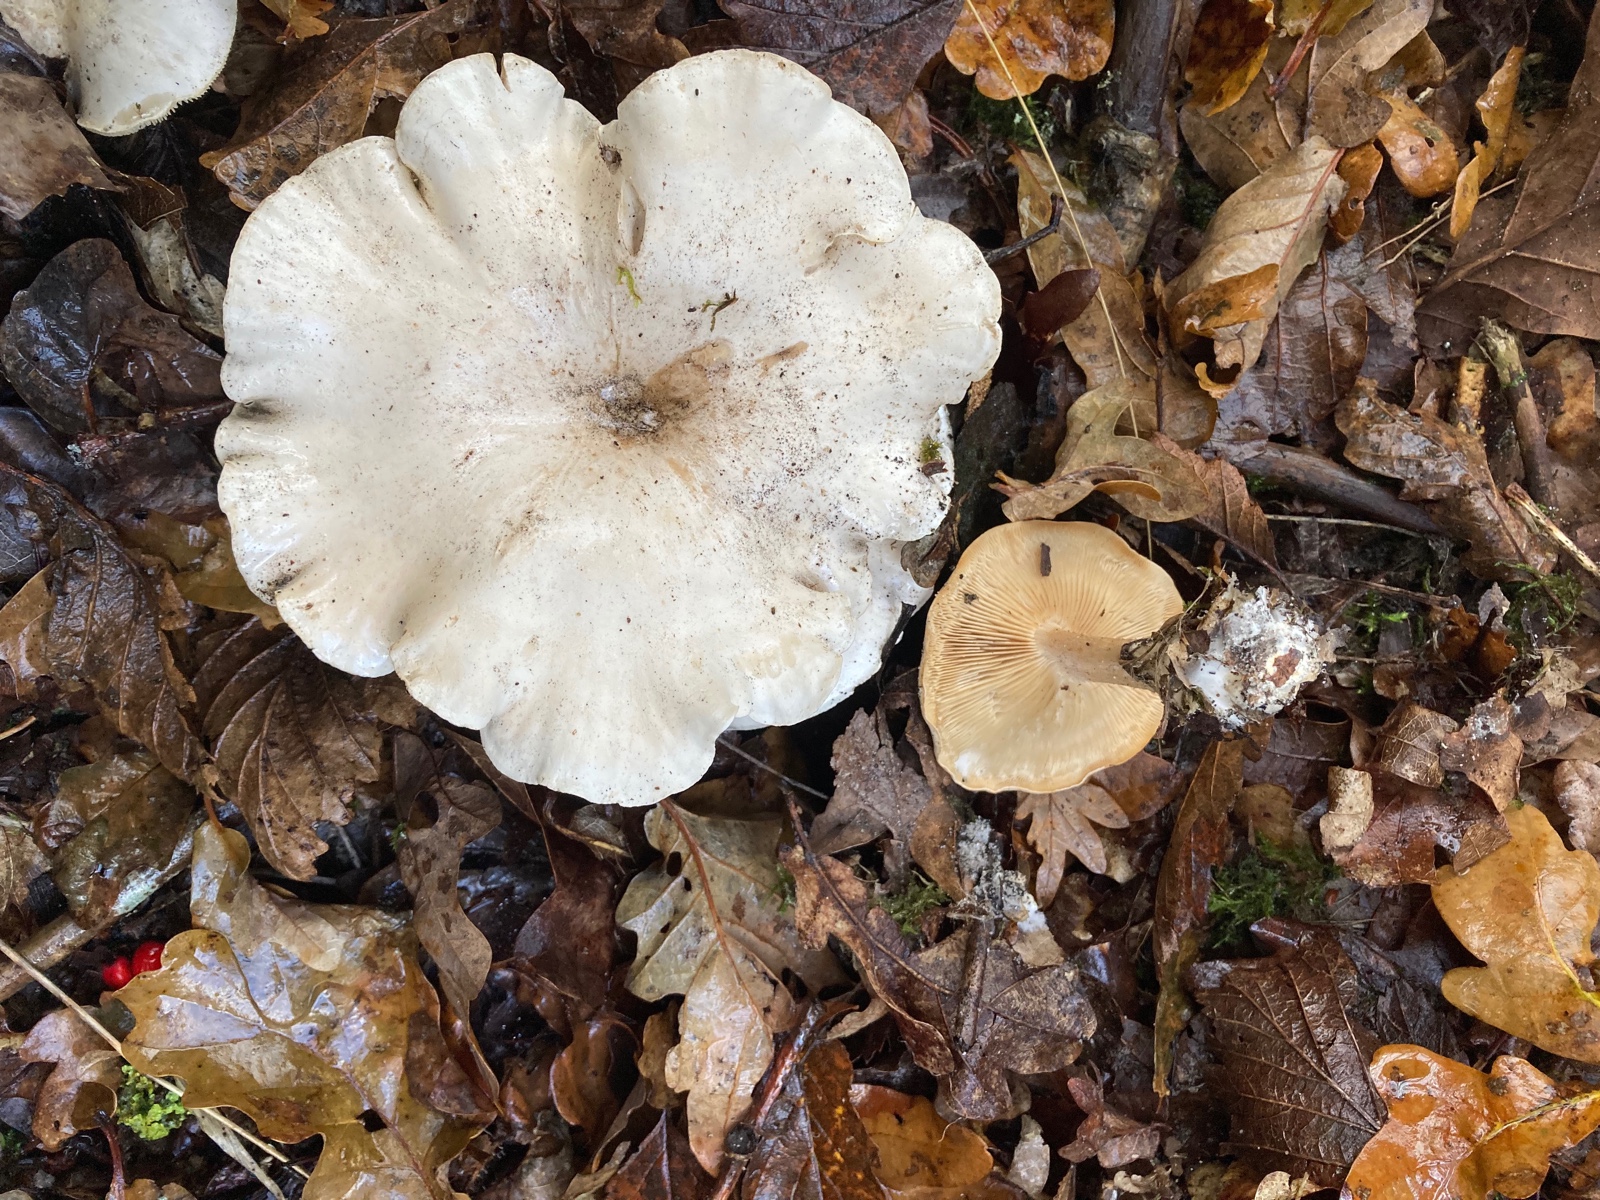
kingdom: Fungi
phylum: Basidiomycota
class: Agaricomycetes
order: Agaricales
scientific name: Agaricales
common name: champignonordenen
